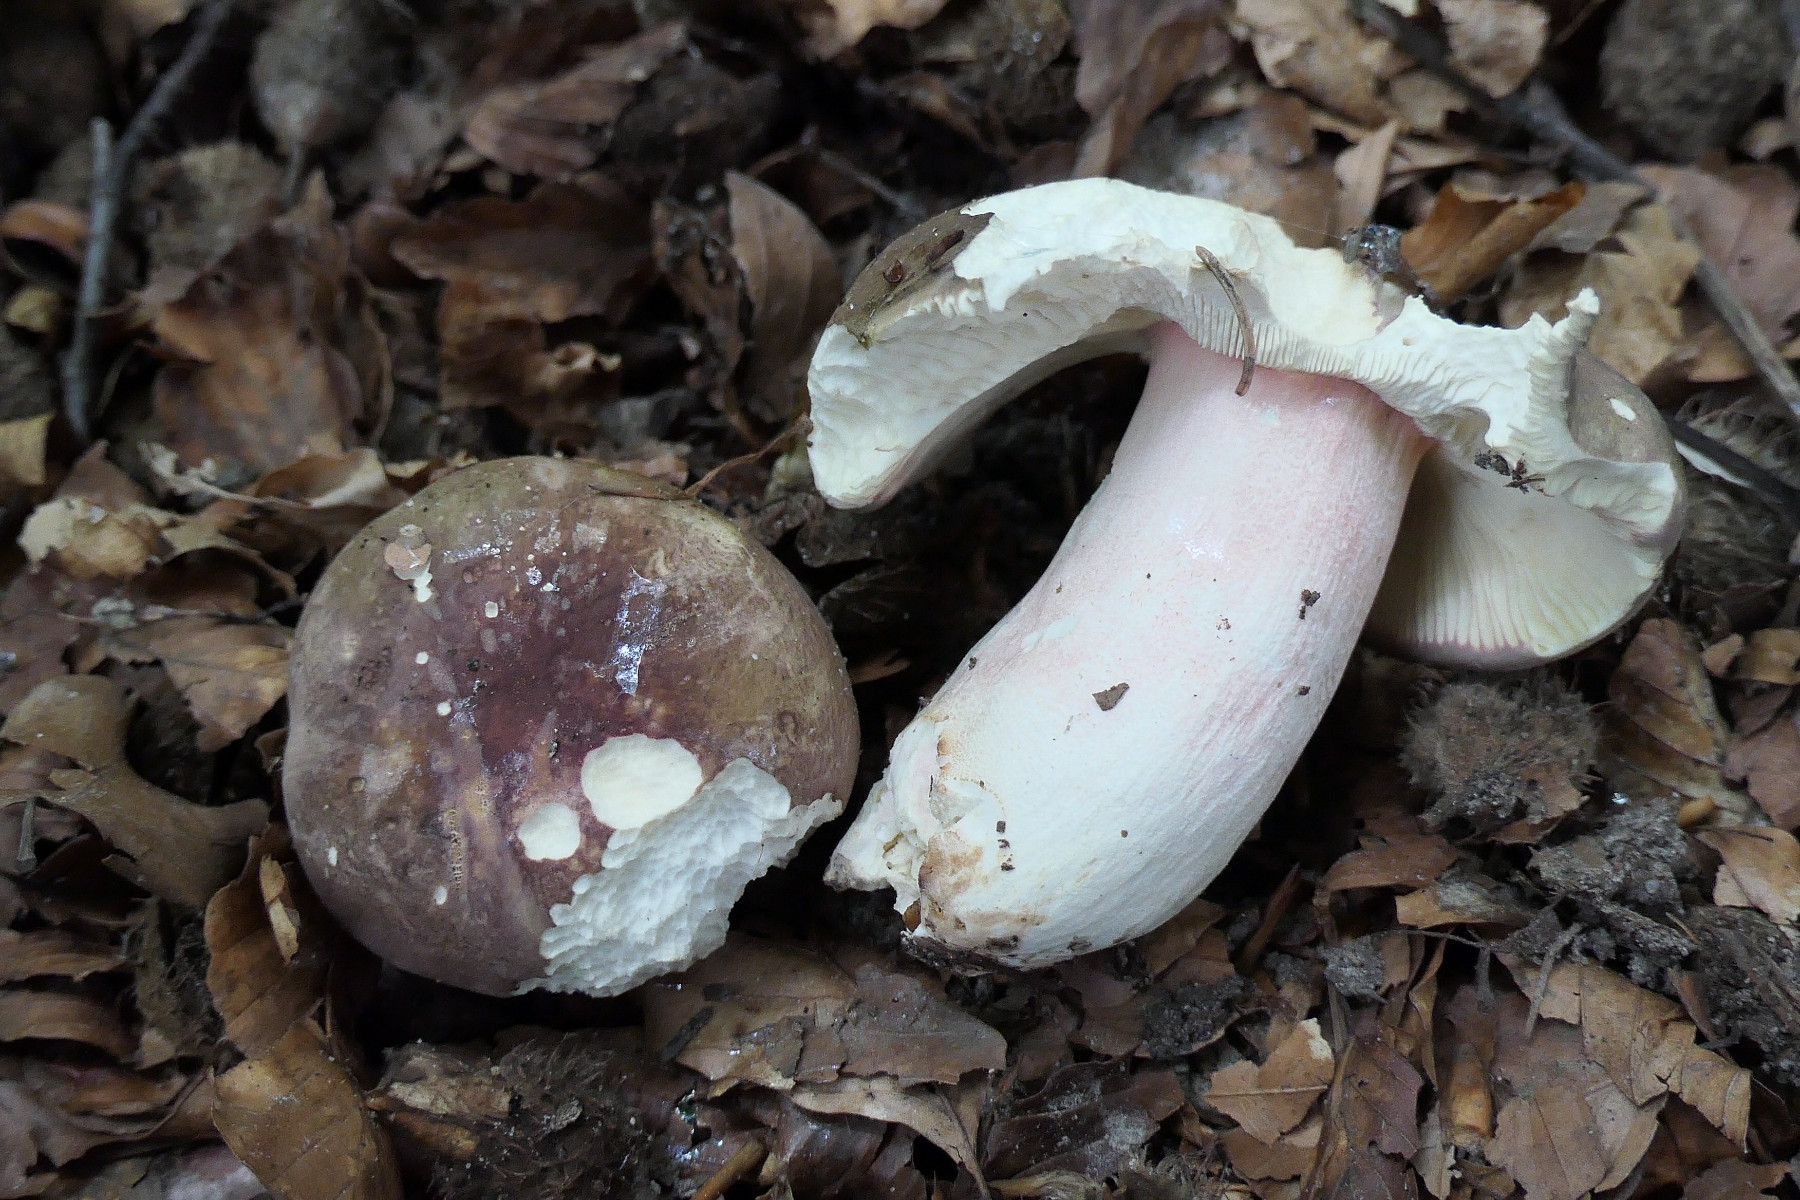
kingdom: Fungi
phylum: Basidiomycota
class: Agaricomycetes
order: Russulales
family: Russulaceae
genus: Russula
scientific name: Russula olivacea
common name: stor skørhat
